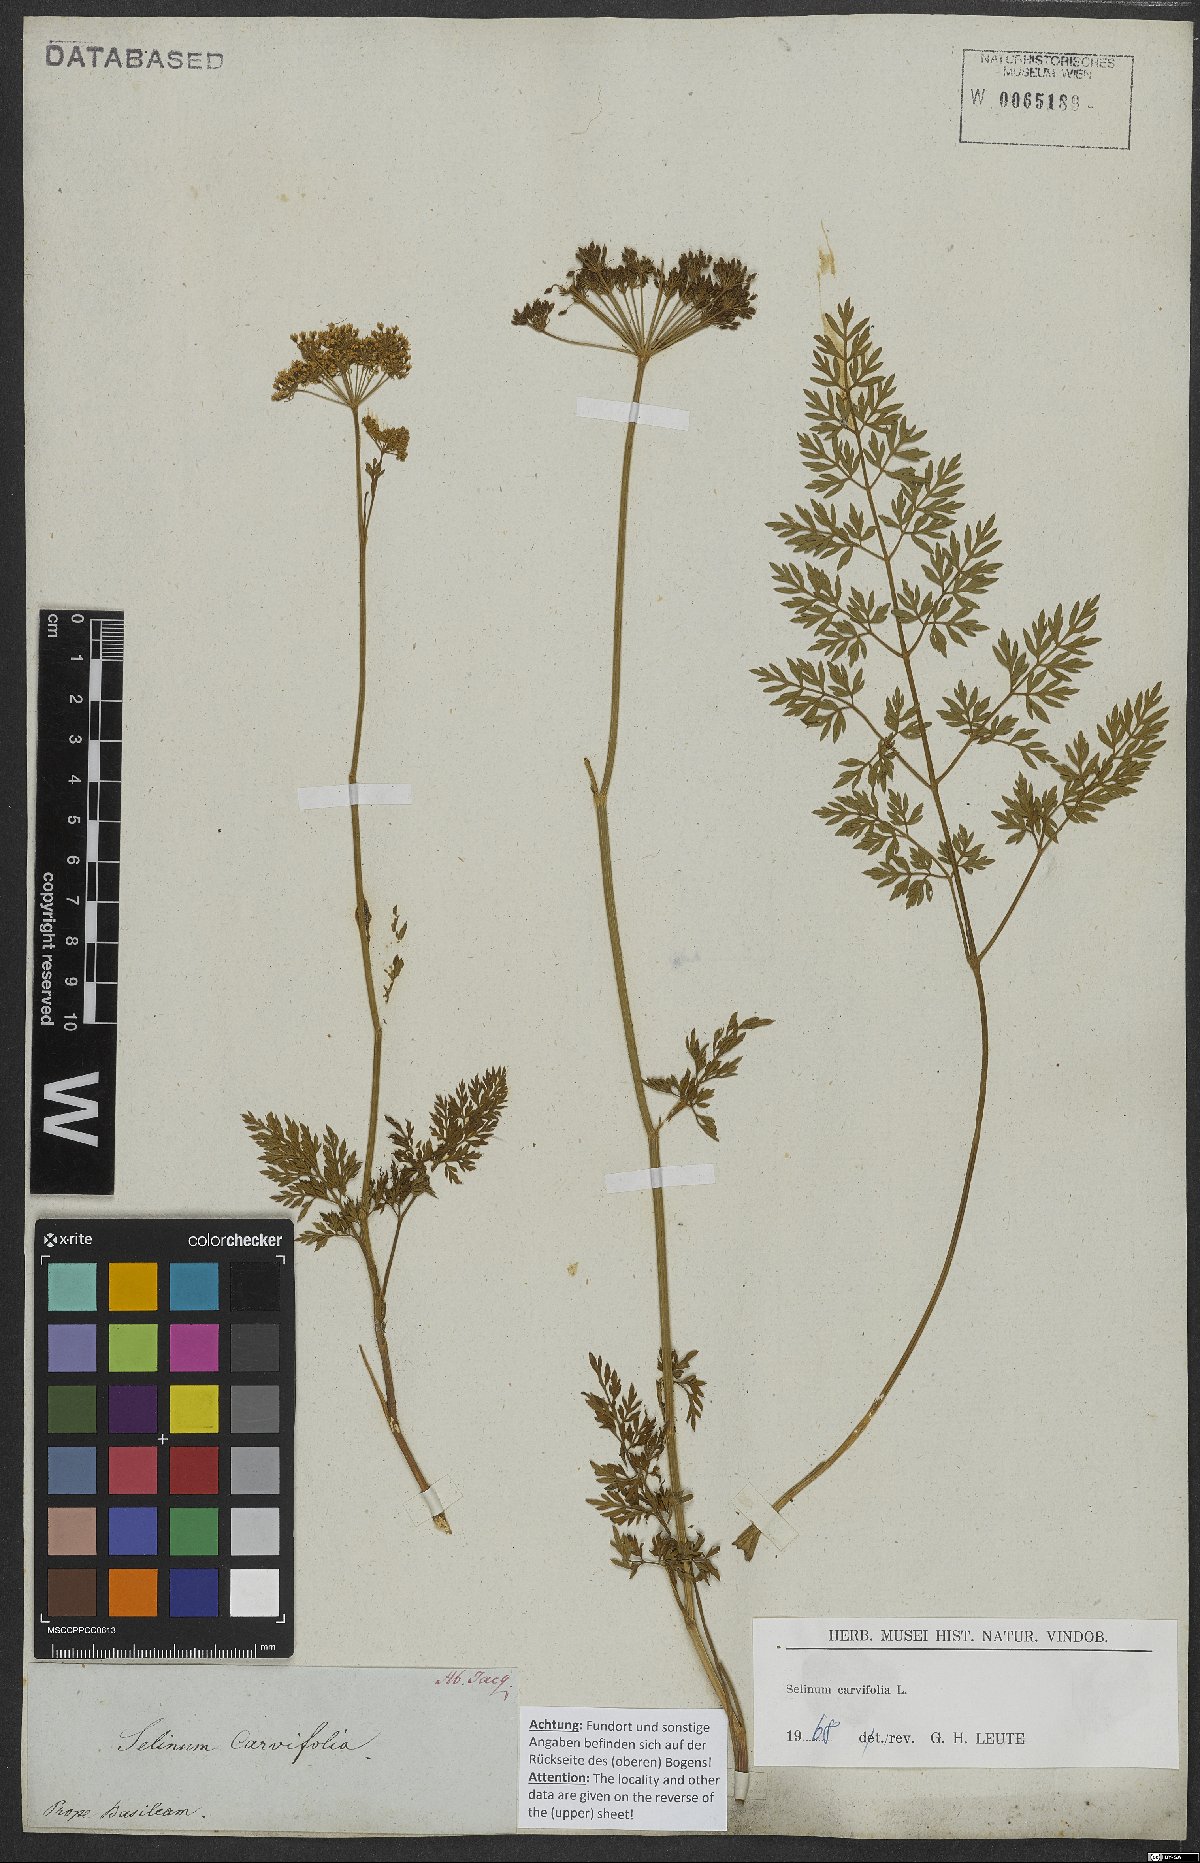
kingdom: Plantae
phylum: Tracheophyta
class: Magnoliopsida
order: Apiales
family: Apiaceae
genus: Selinum
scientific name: Selinum carvifolia
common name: Cambridge milk-parsley
